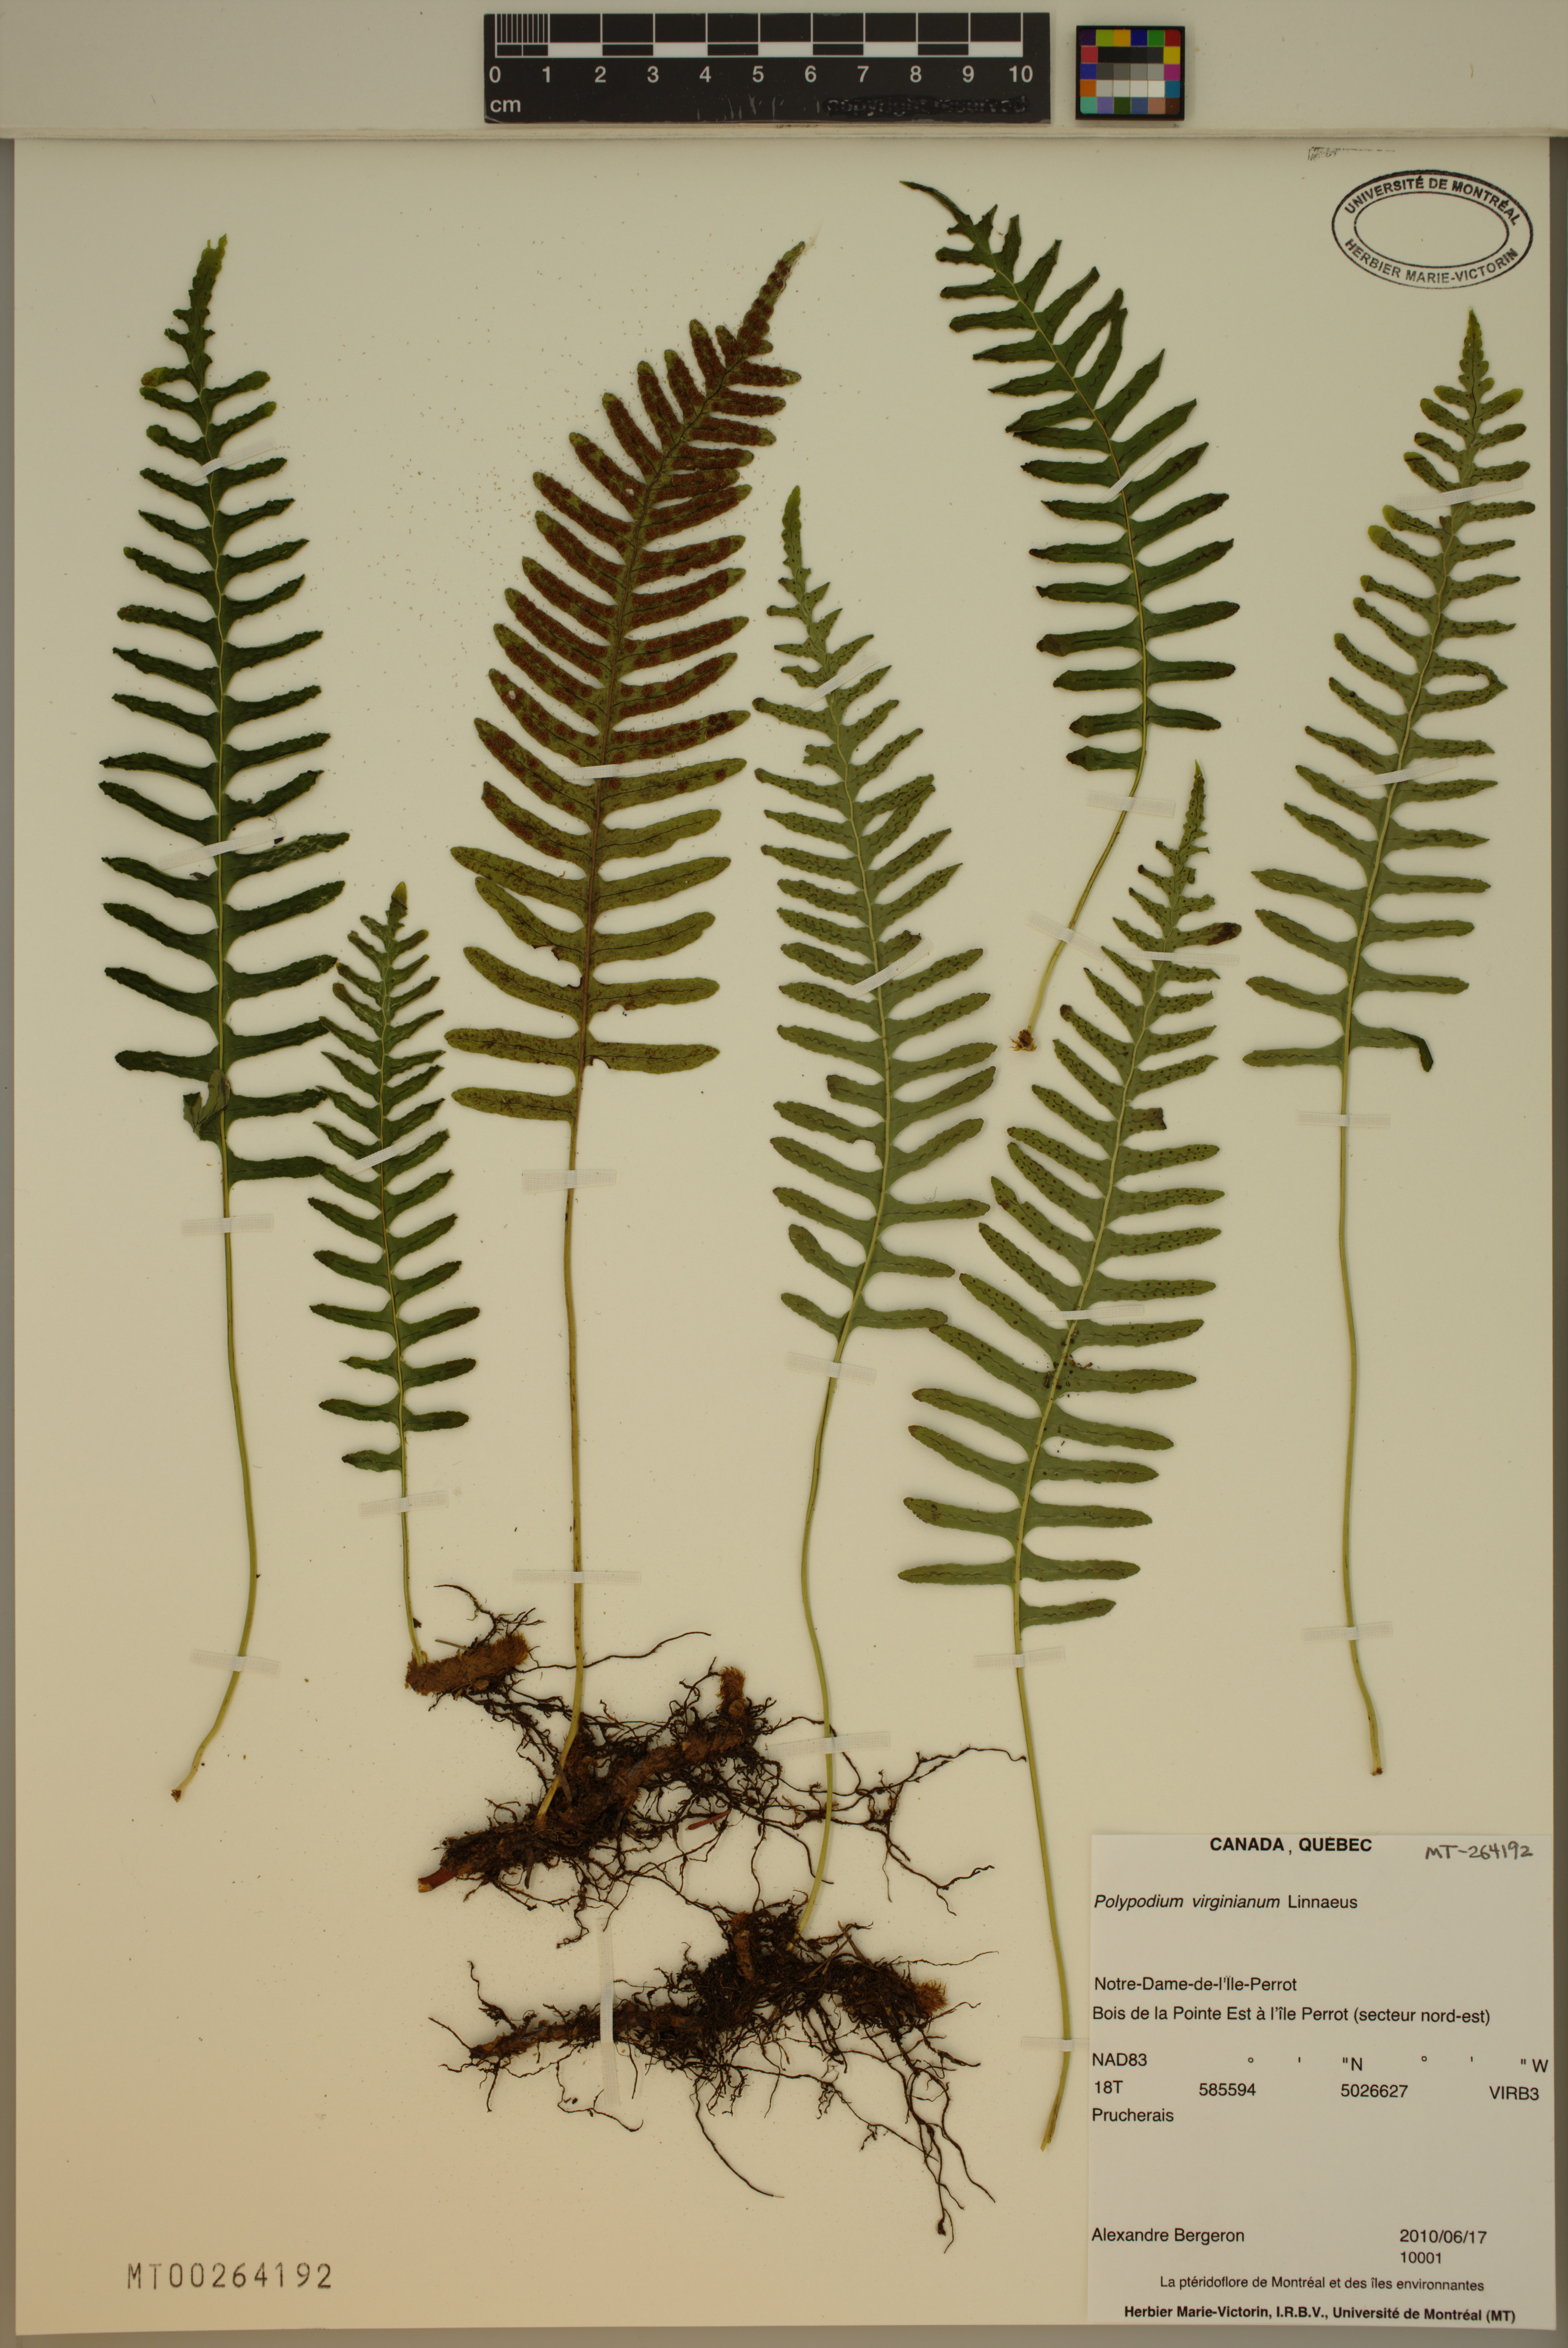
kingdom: Plantae
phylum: Tracheophyta
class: Polypodiopsida
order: Polypodiales
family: Polypodiaceae
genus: Polypodium
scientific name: Polypodium virginianum
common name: American wall fern
